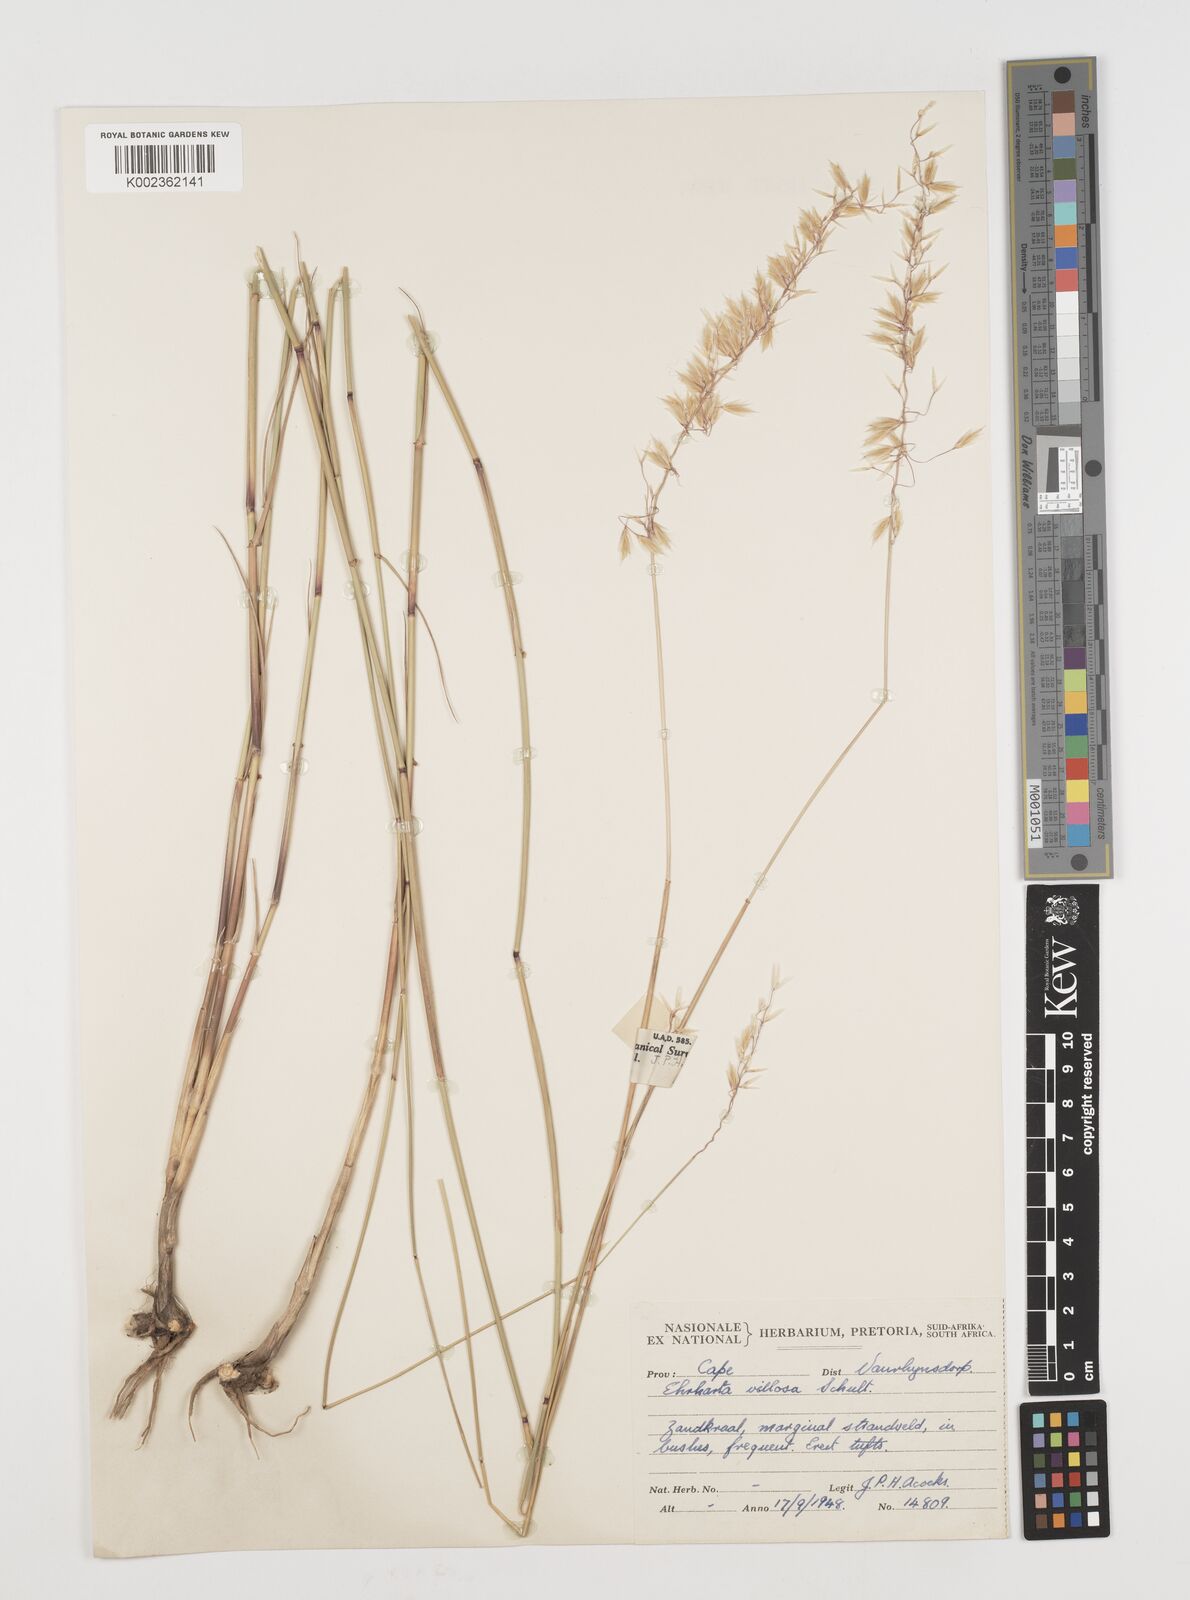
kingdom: Plantae
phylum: Tracheophyta
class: Liliopsida
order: Poales
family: Poaceae
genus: Ehrharta
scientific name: Ehrharta thunbergii
